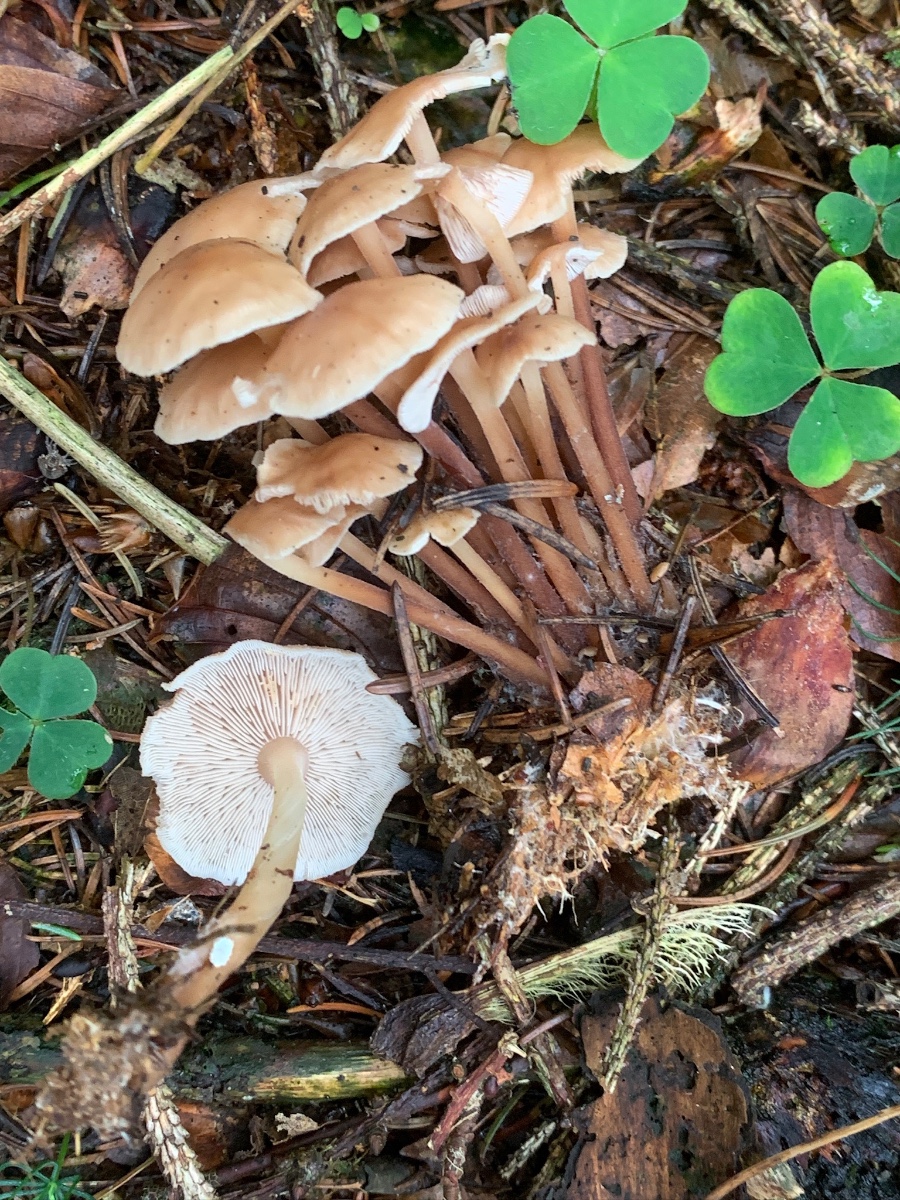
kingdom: Fungi
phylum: Basidiomycota
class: Agaricomycetes
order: Agaricales
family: Omphalotaceae
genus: Collybiopsis
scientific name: Collybiopsis confluens
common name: knippe-fladhat
